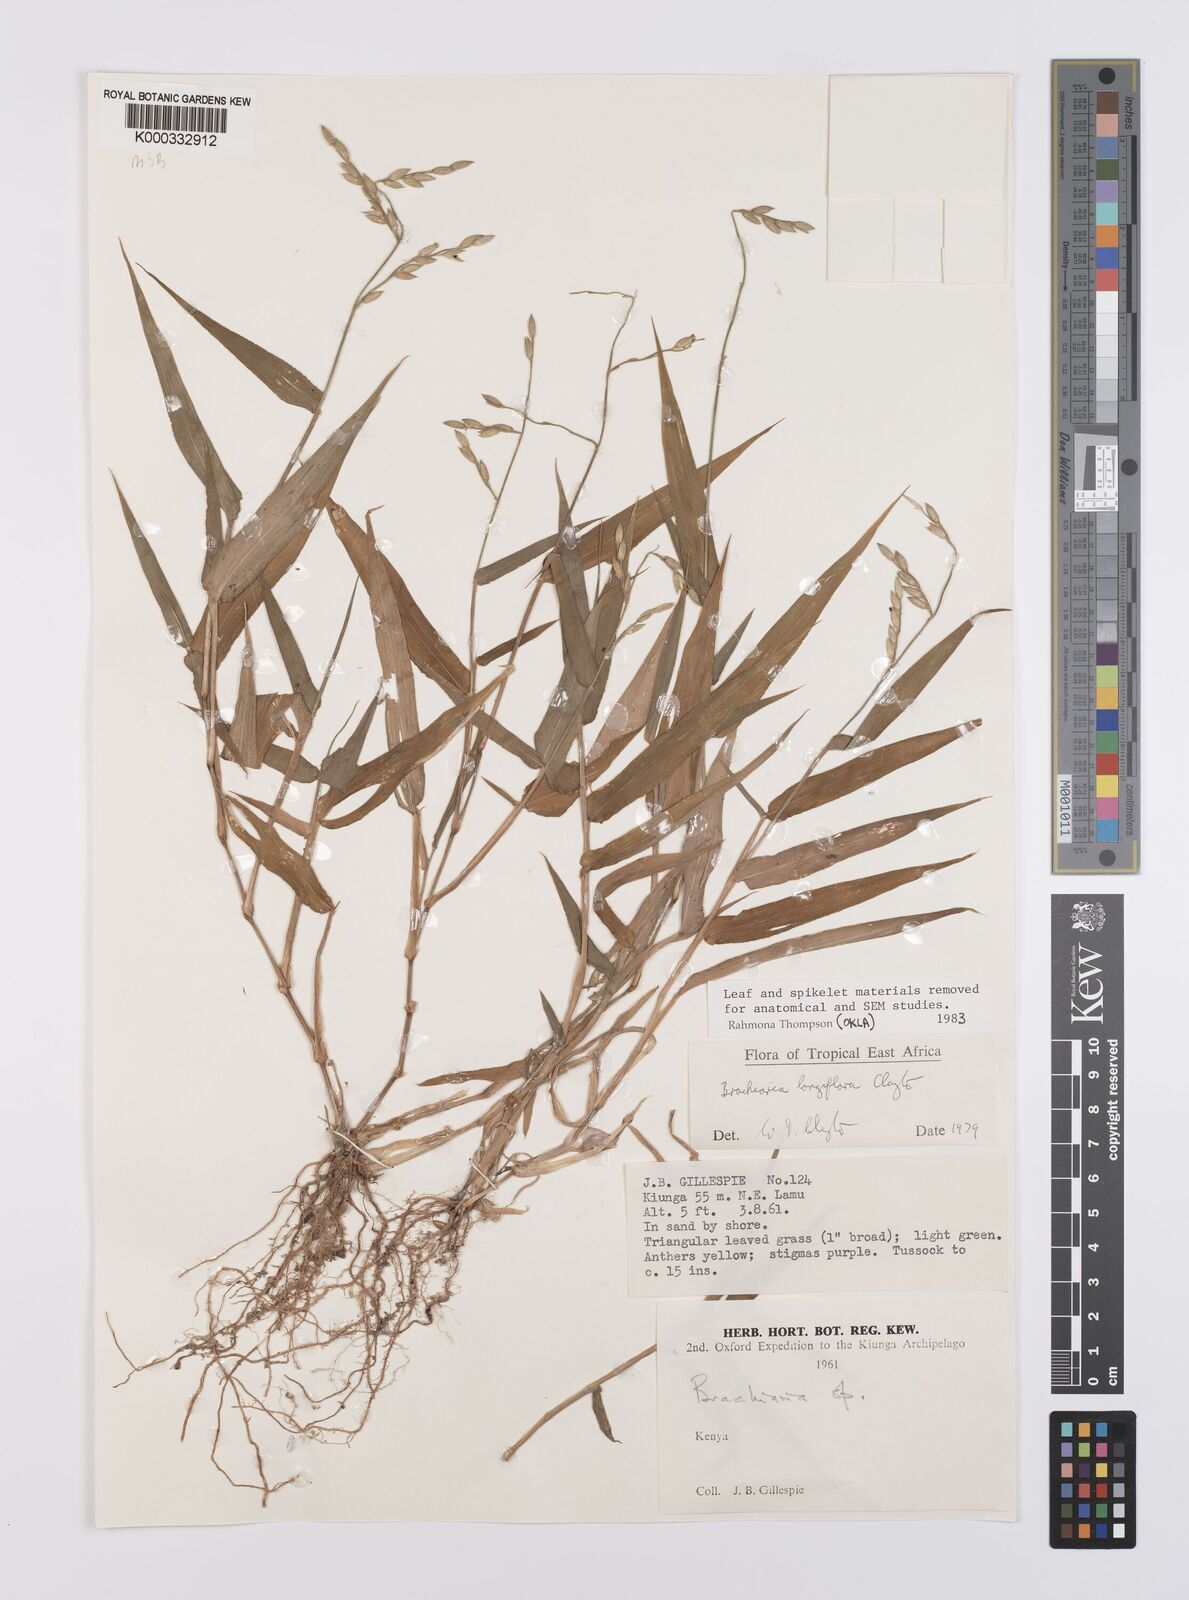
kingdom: Plantae
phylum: Tracheophyta
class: Liliopsida
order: Poales
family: Poaceae
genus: Urochloa
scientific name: Urochloa Brachiaria longiflora
